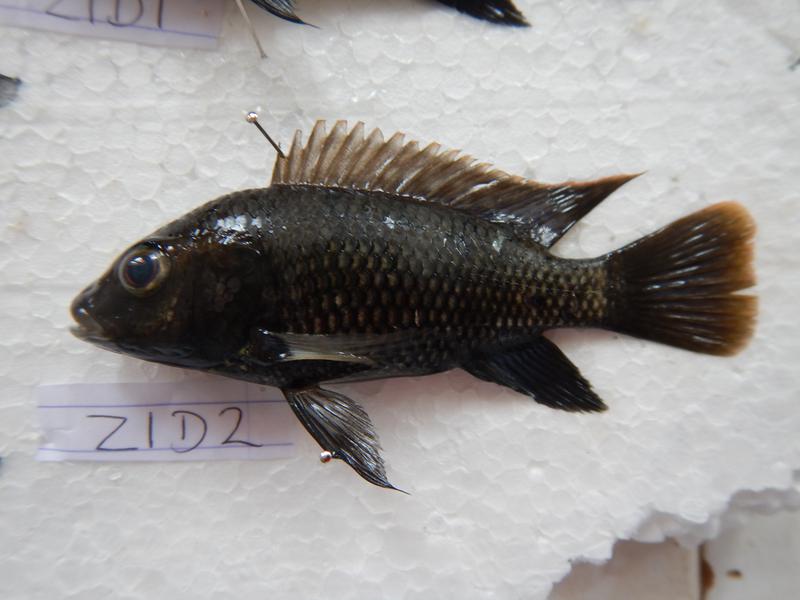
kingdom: Animalia
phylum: Chordata
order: Perciformes
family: Cichlidae
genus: Oreochromis
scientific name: Oreochromis urolepis
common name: Wami tilapia
